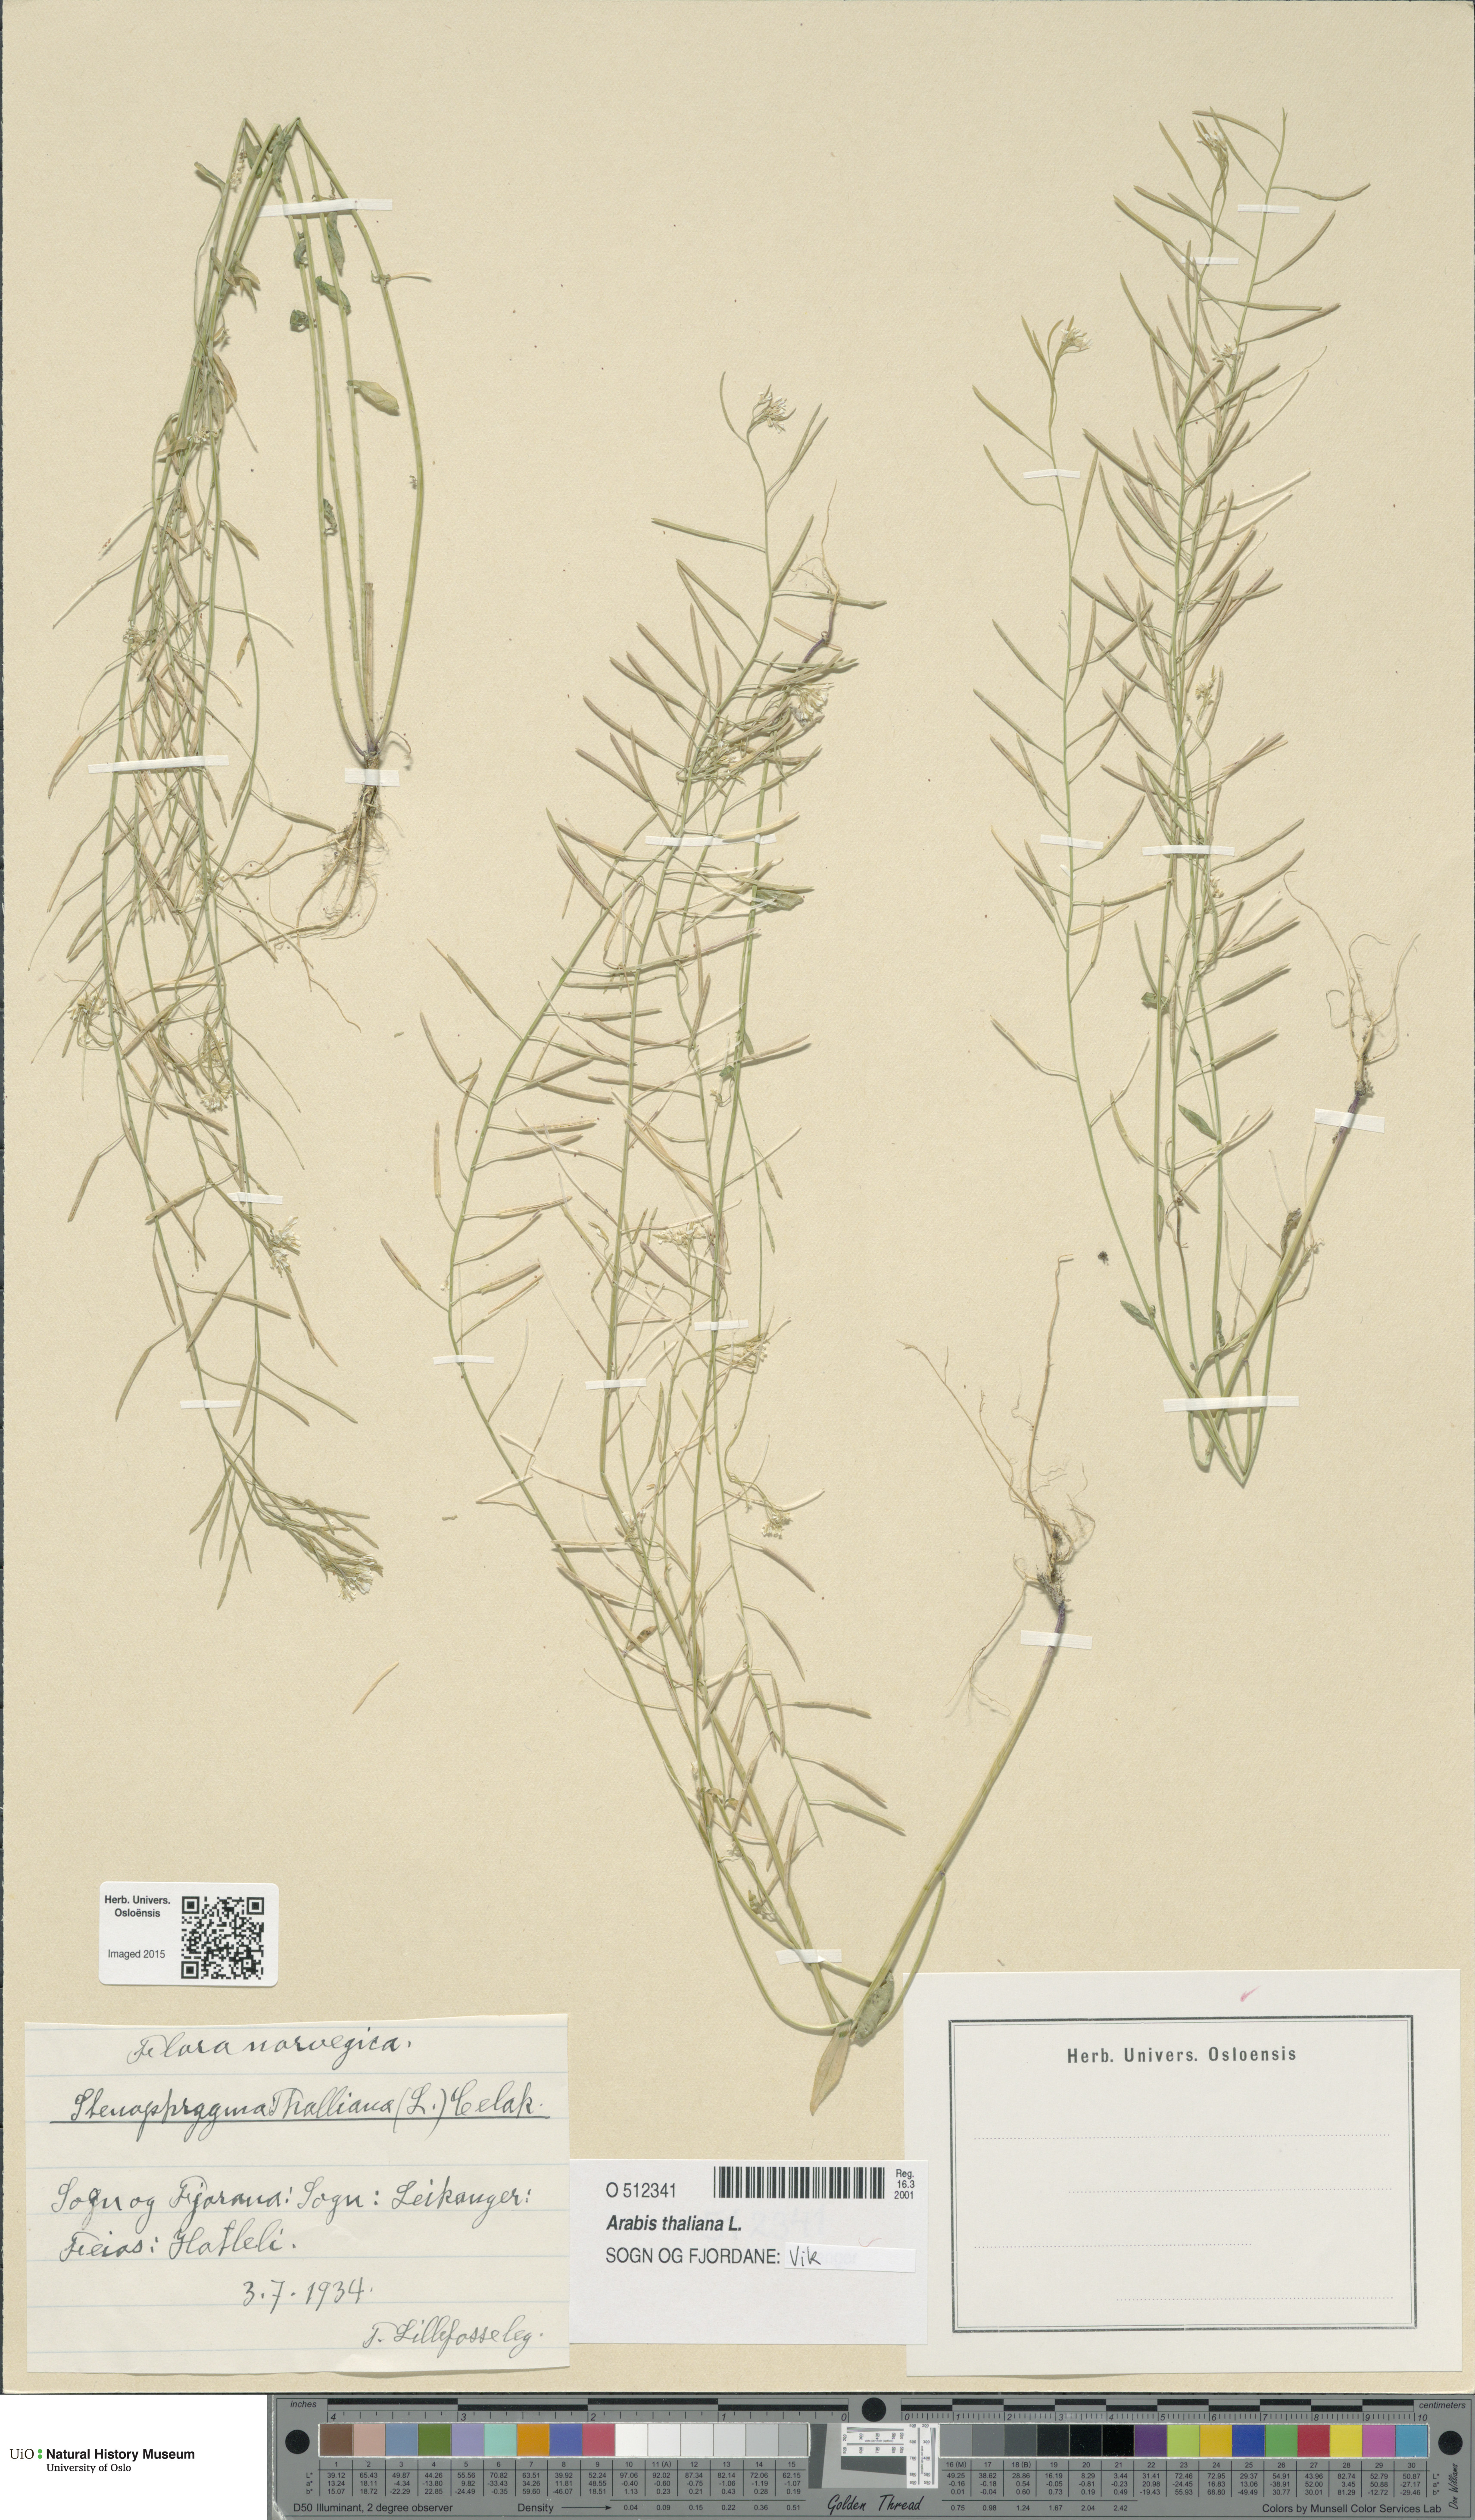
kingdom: Plantae
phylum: Tracheophyta
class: Magnoliopsida
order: Brassicales
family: Brassicaceae
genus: Arabidopsis
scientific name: Arabidopsis thaliana
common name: Thale cress
